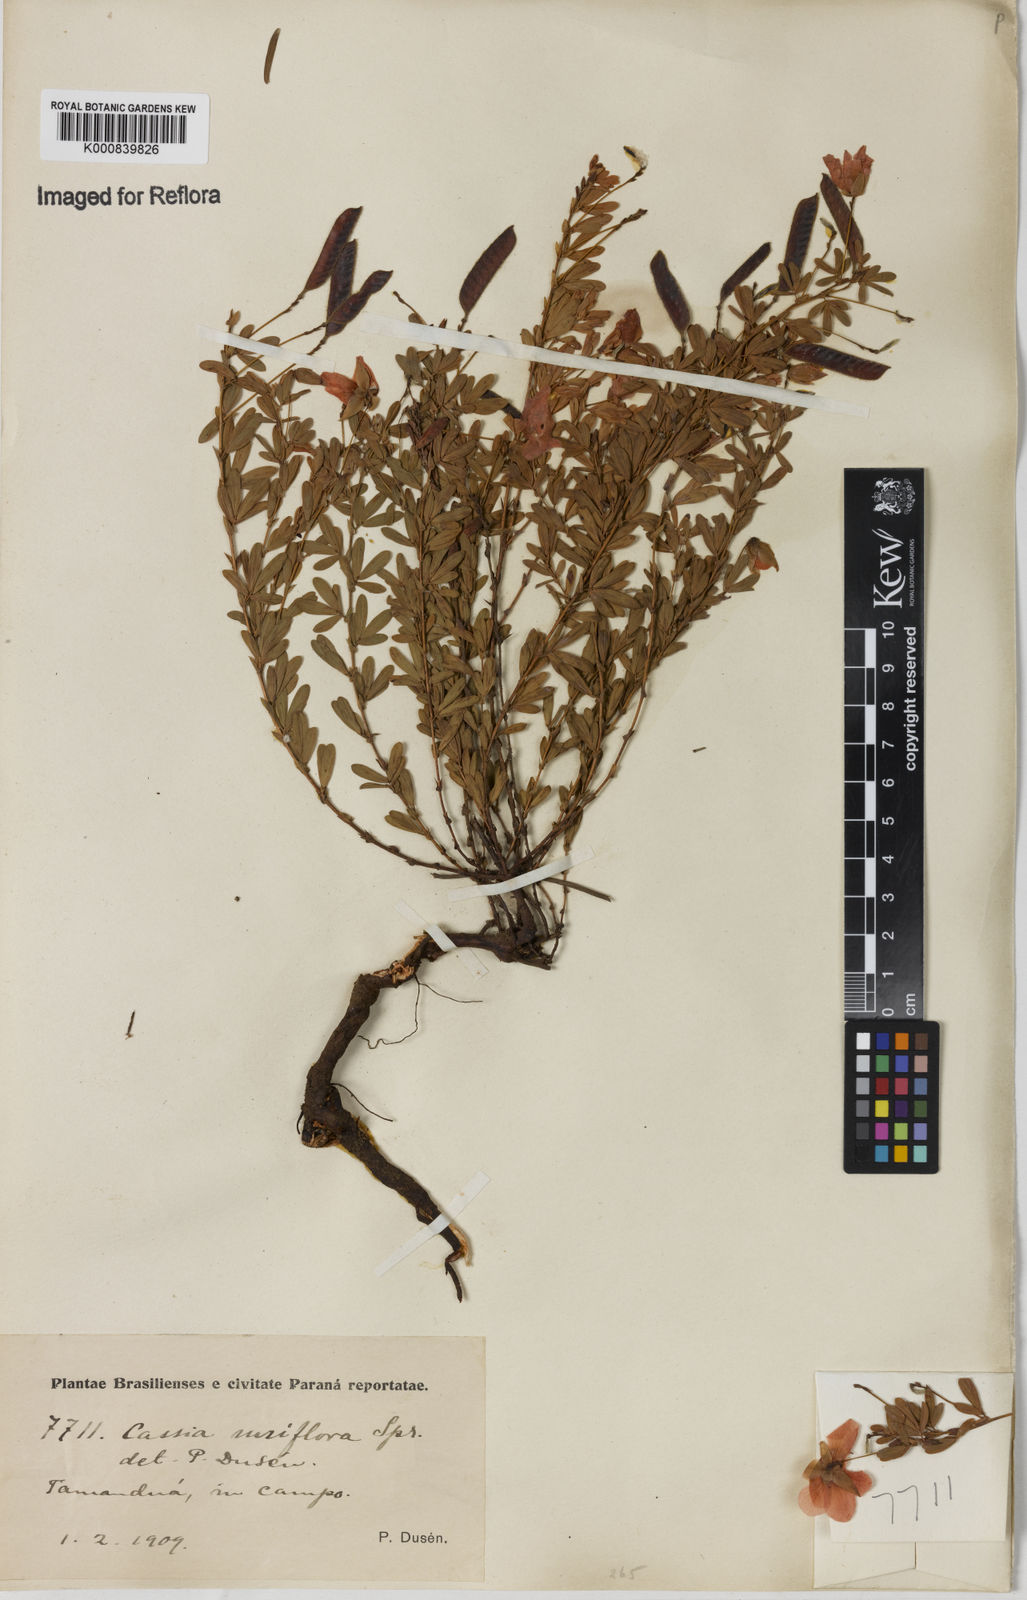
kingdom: Plantae
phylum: Tracheophyta
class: Magnoliopsida
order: Fabales
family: Fabaceae
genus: Chamaecrista
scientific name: Chamaecrista ramosa
